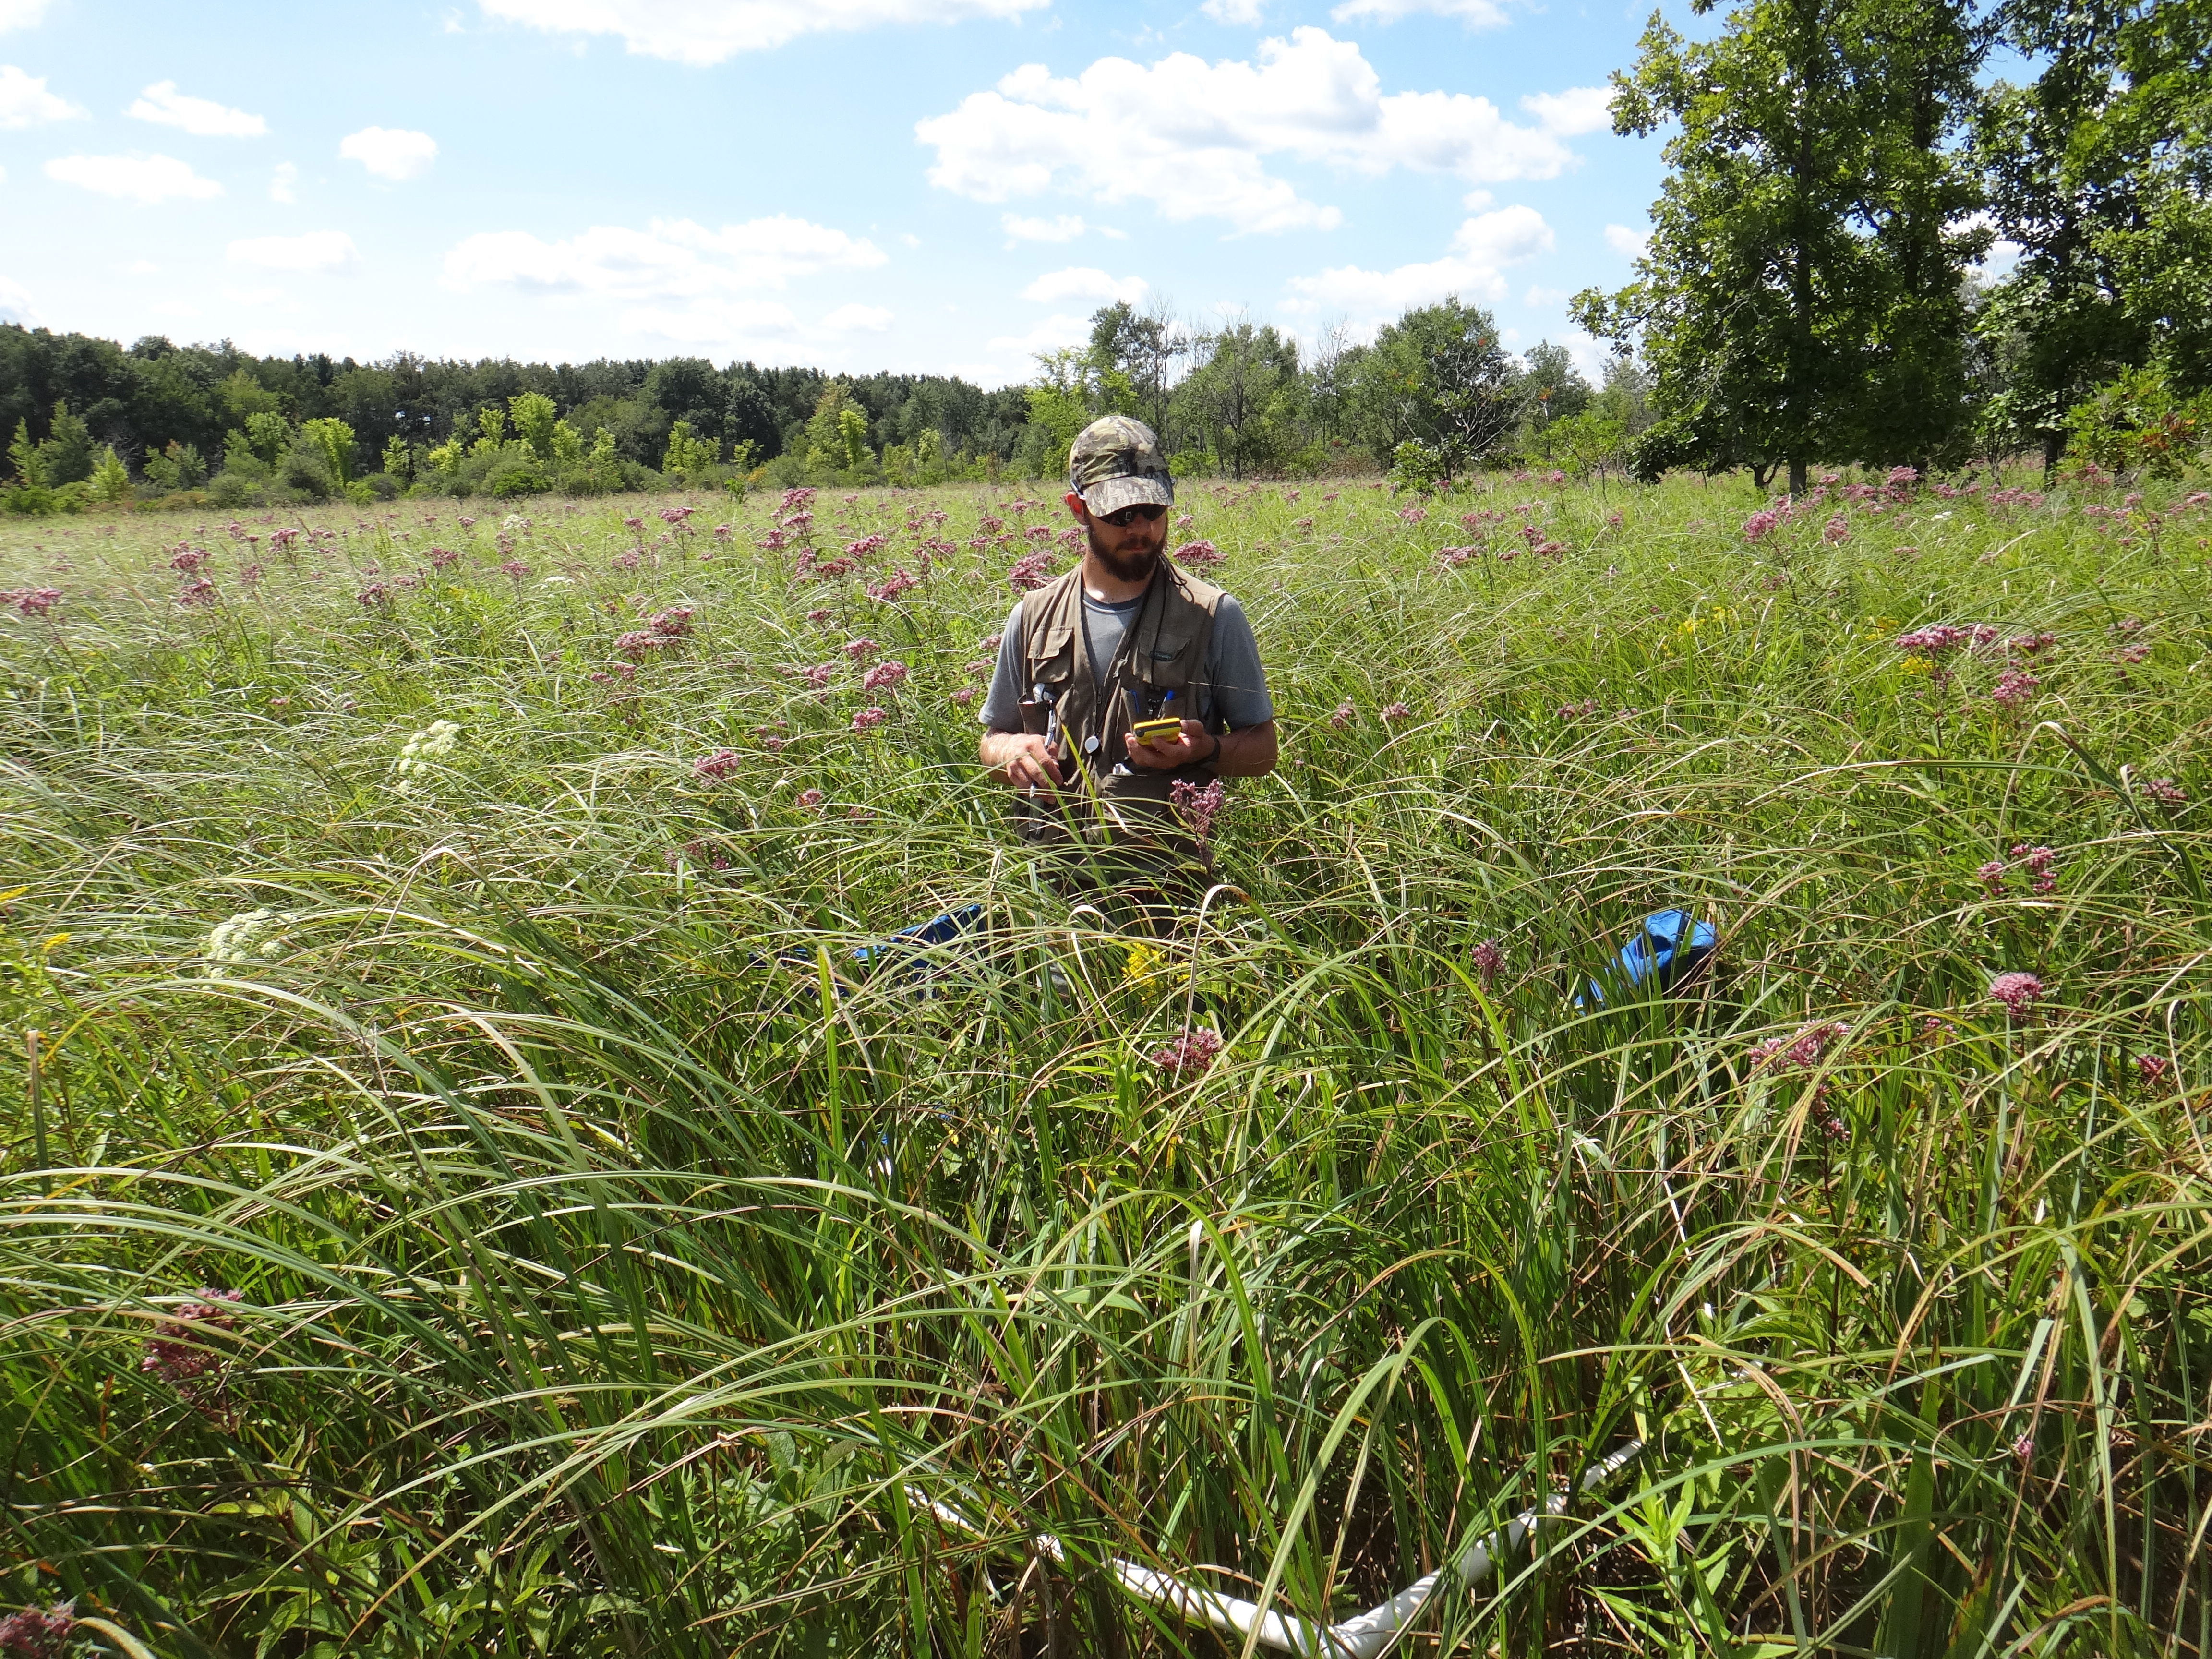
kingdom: Plantae
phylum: Tracheophyta
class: Magnoliopsida
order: Gentianales
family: Apocynaceae
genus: Asclepias
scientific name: Asclepias incarnata
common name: Swamp milkweed
